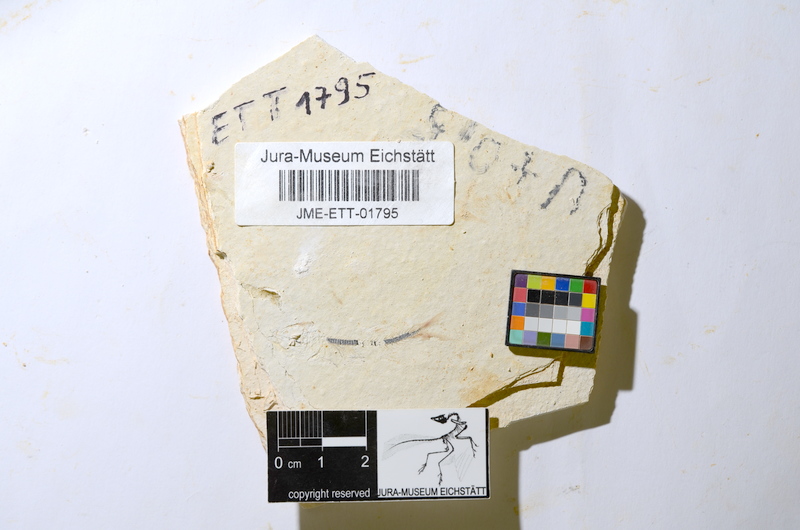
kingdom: Animalia
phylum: Chordata
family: Ascalaboidae
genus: Ebertichthys
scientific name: Ebertichthys ettlingensis
